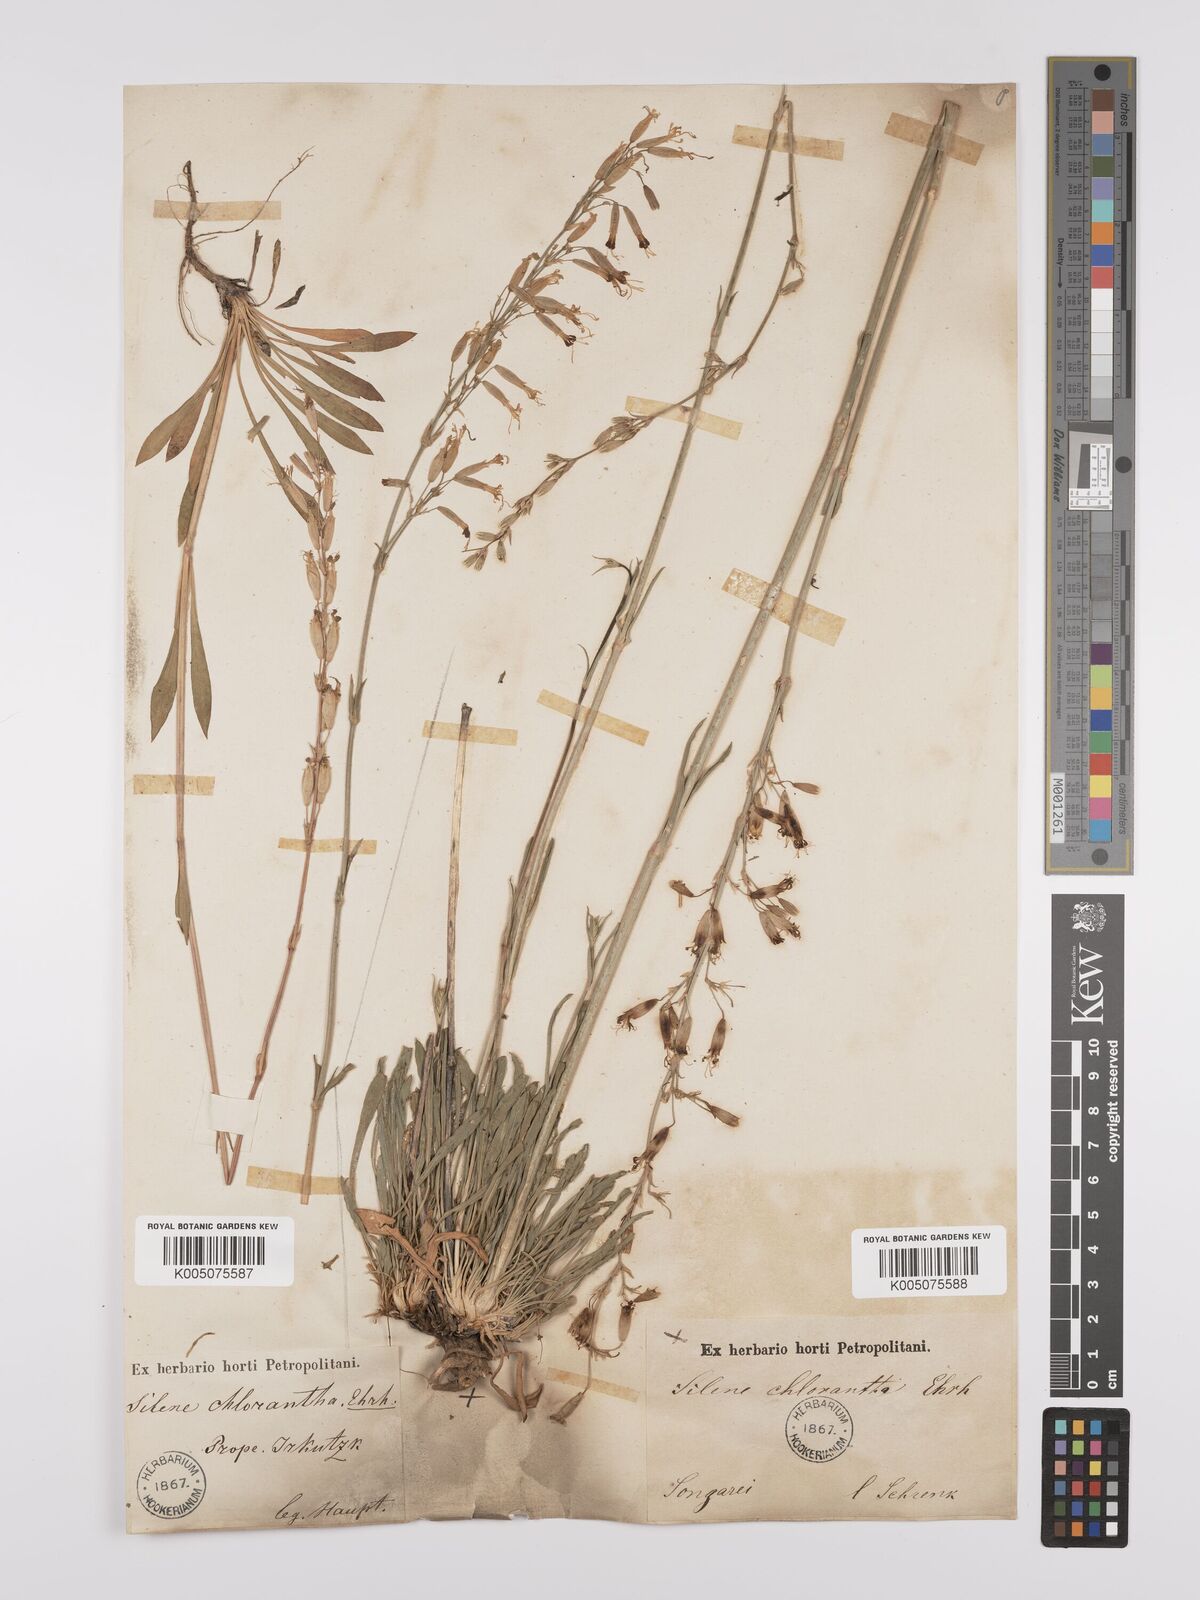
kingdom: Plantae
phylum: Tracheophyta
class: Magnoliopsida
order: Caryophyllales
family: Caryophyllaceae
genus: Silene
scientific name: Silene
